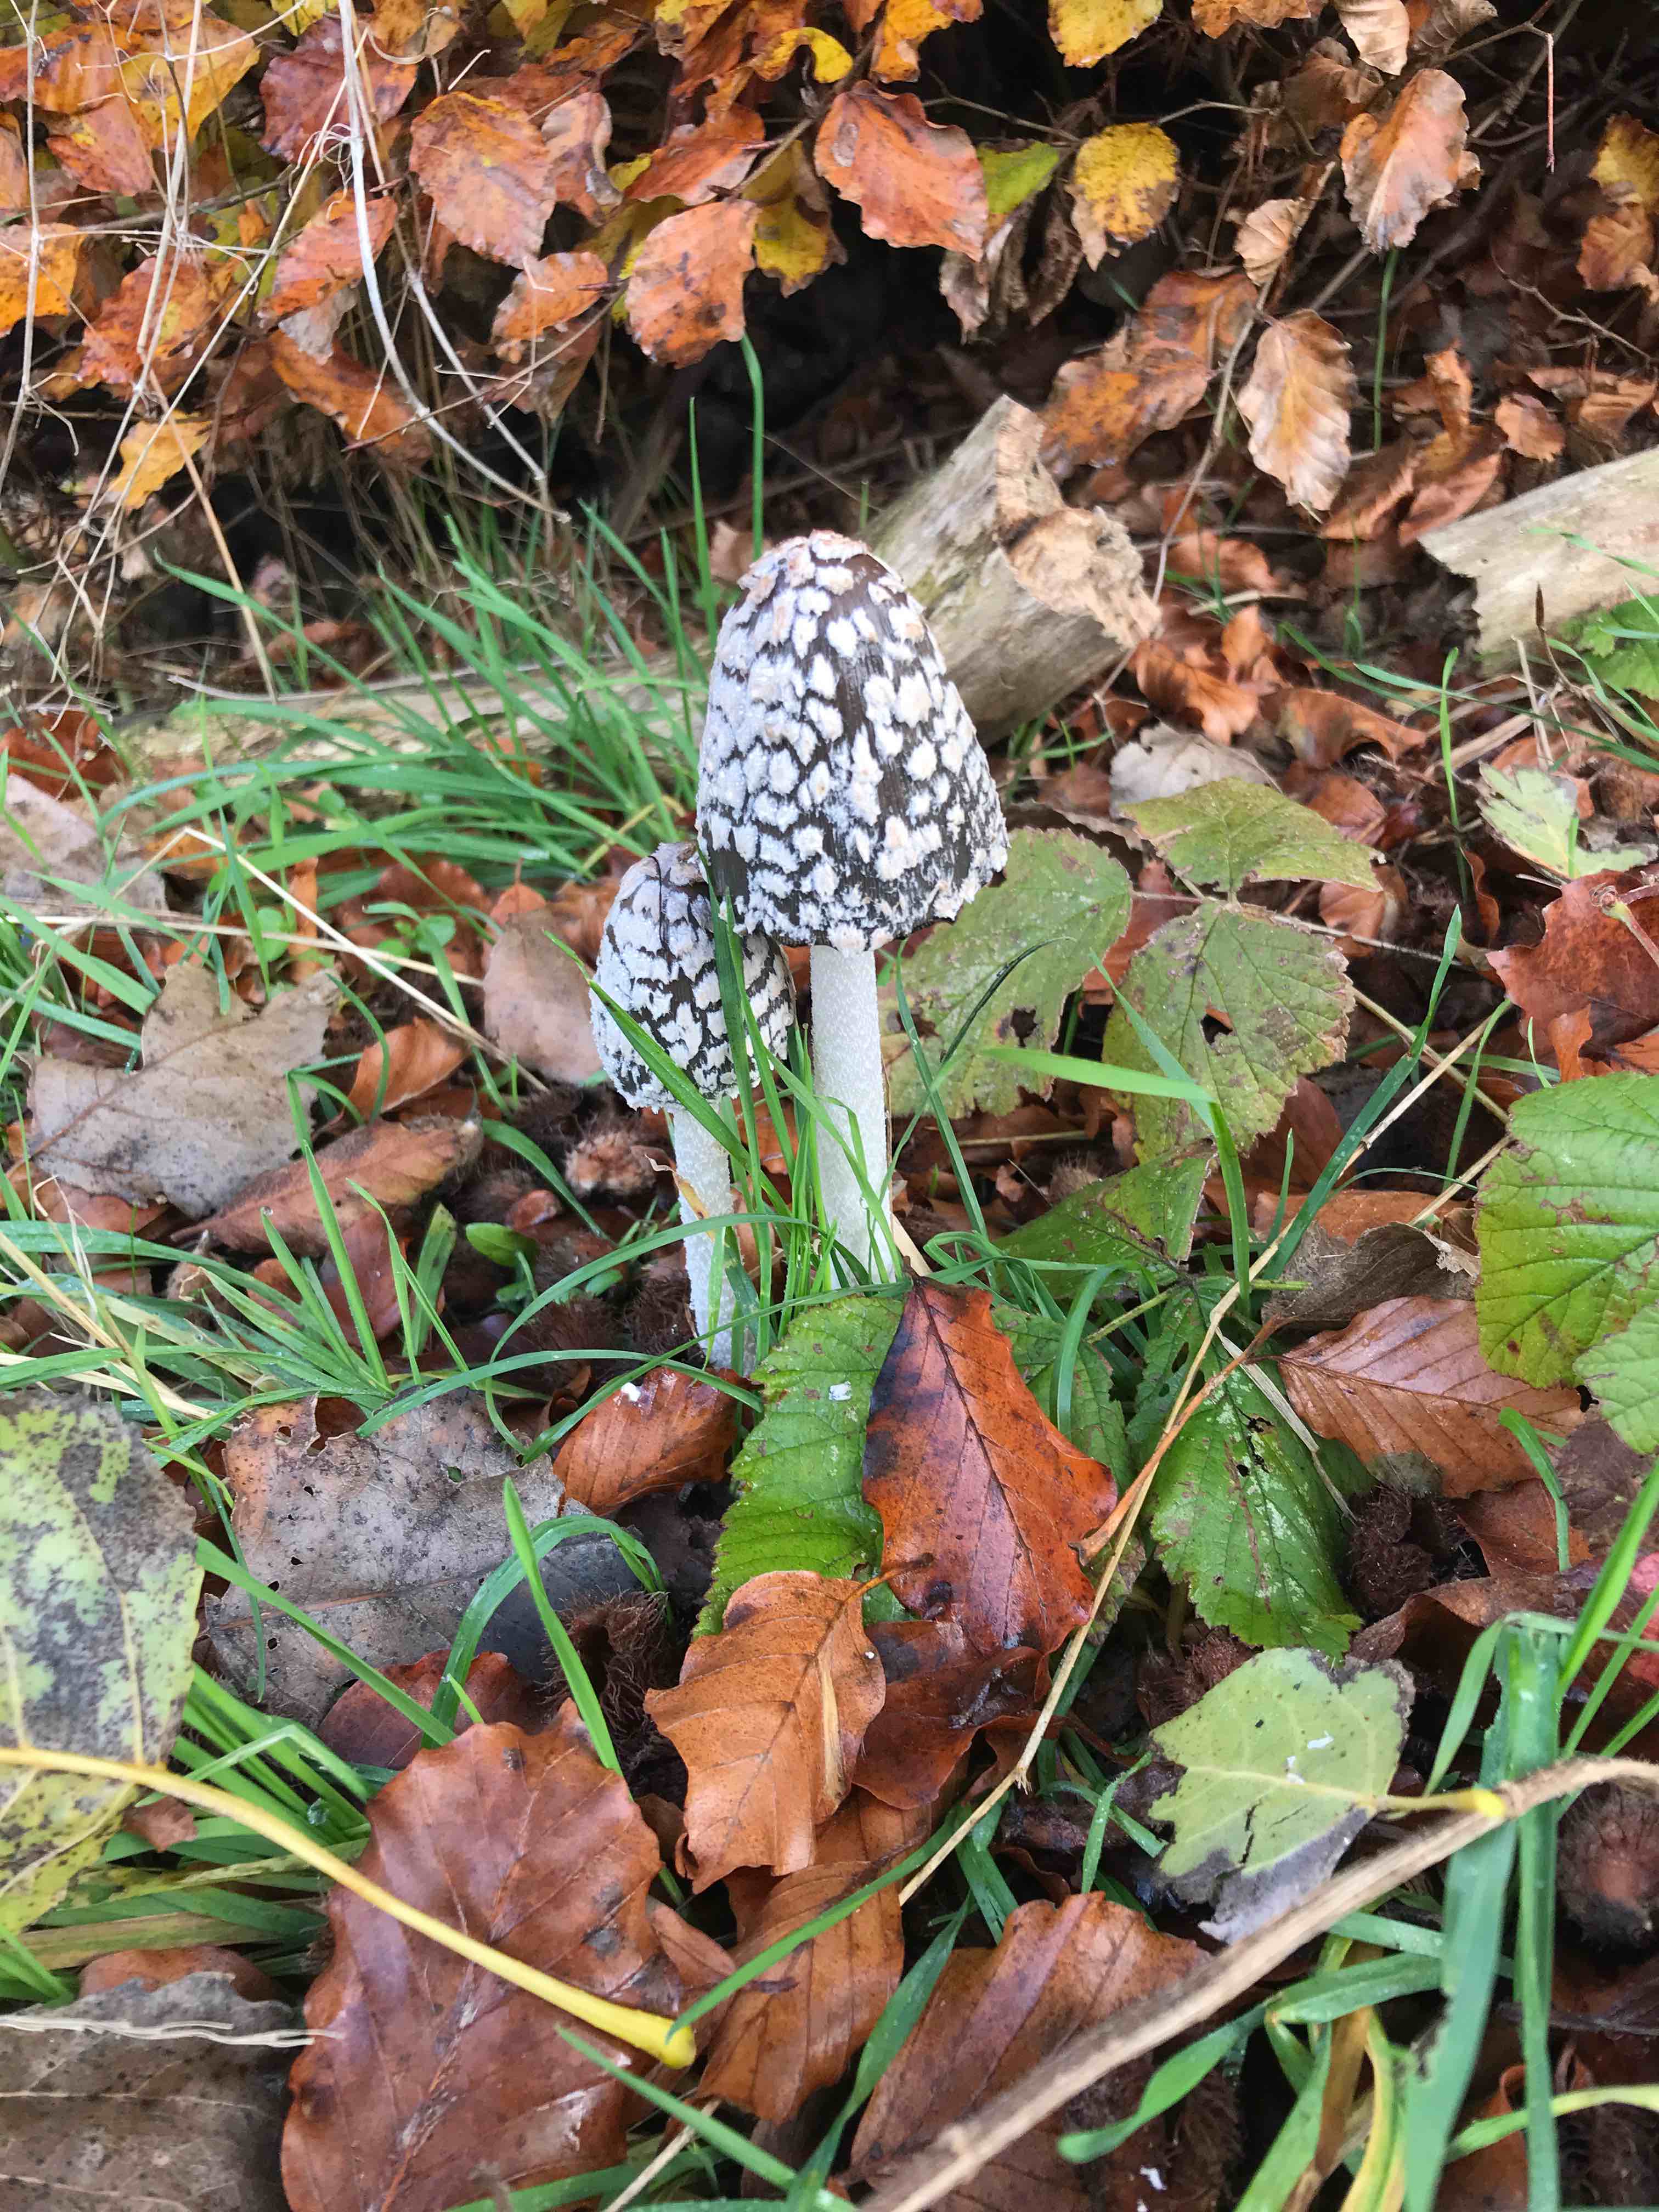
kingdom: Fungi
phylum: Basidiomycota
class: Agaricomycetes
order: Agaricales
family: Psathyrellaceae
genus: Coprinopsis
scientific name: Coprinopsis picacea
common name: skade-blækhat
